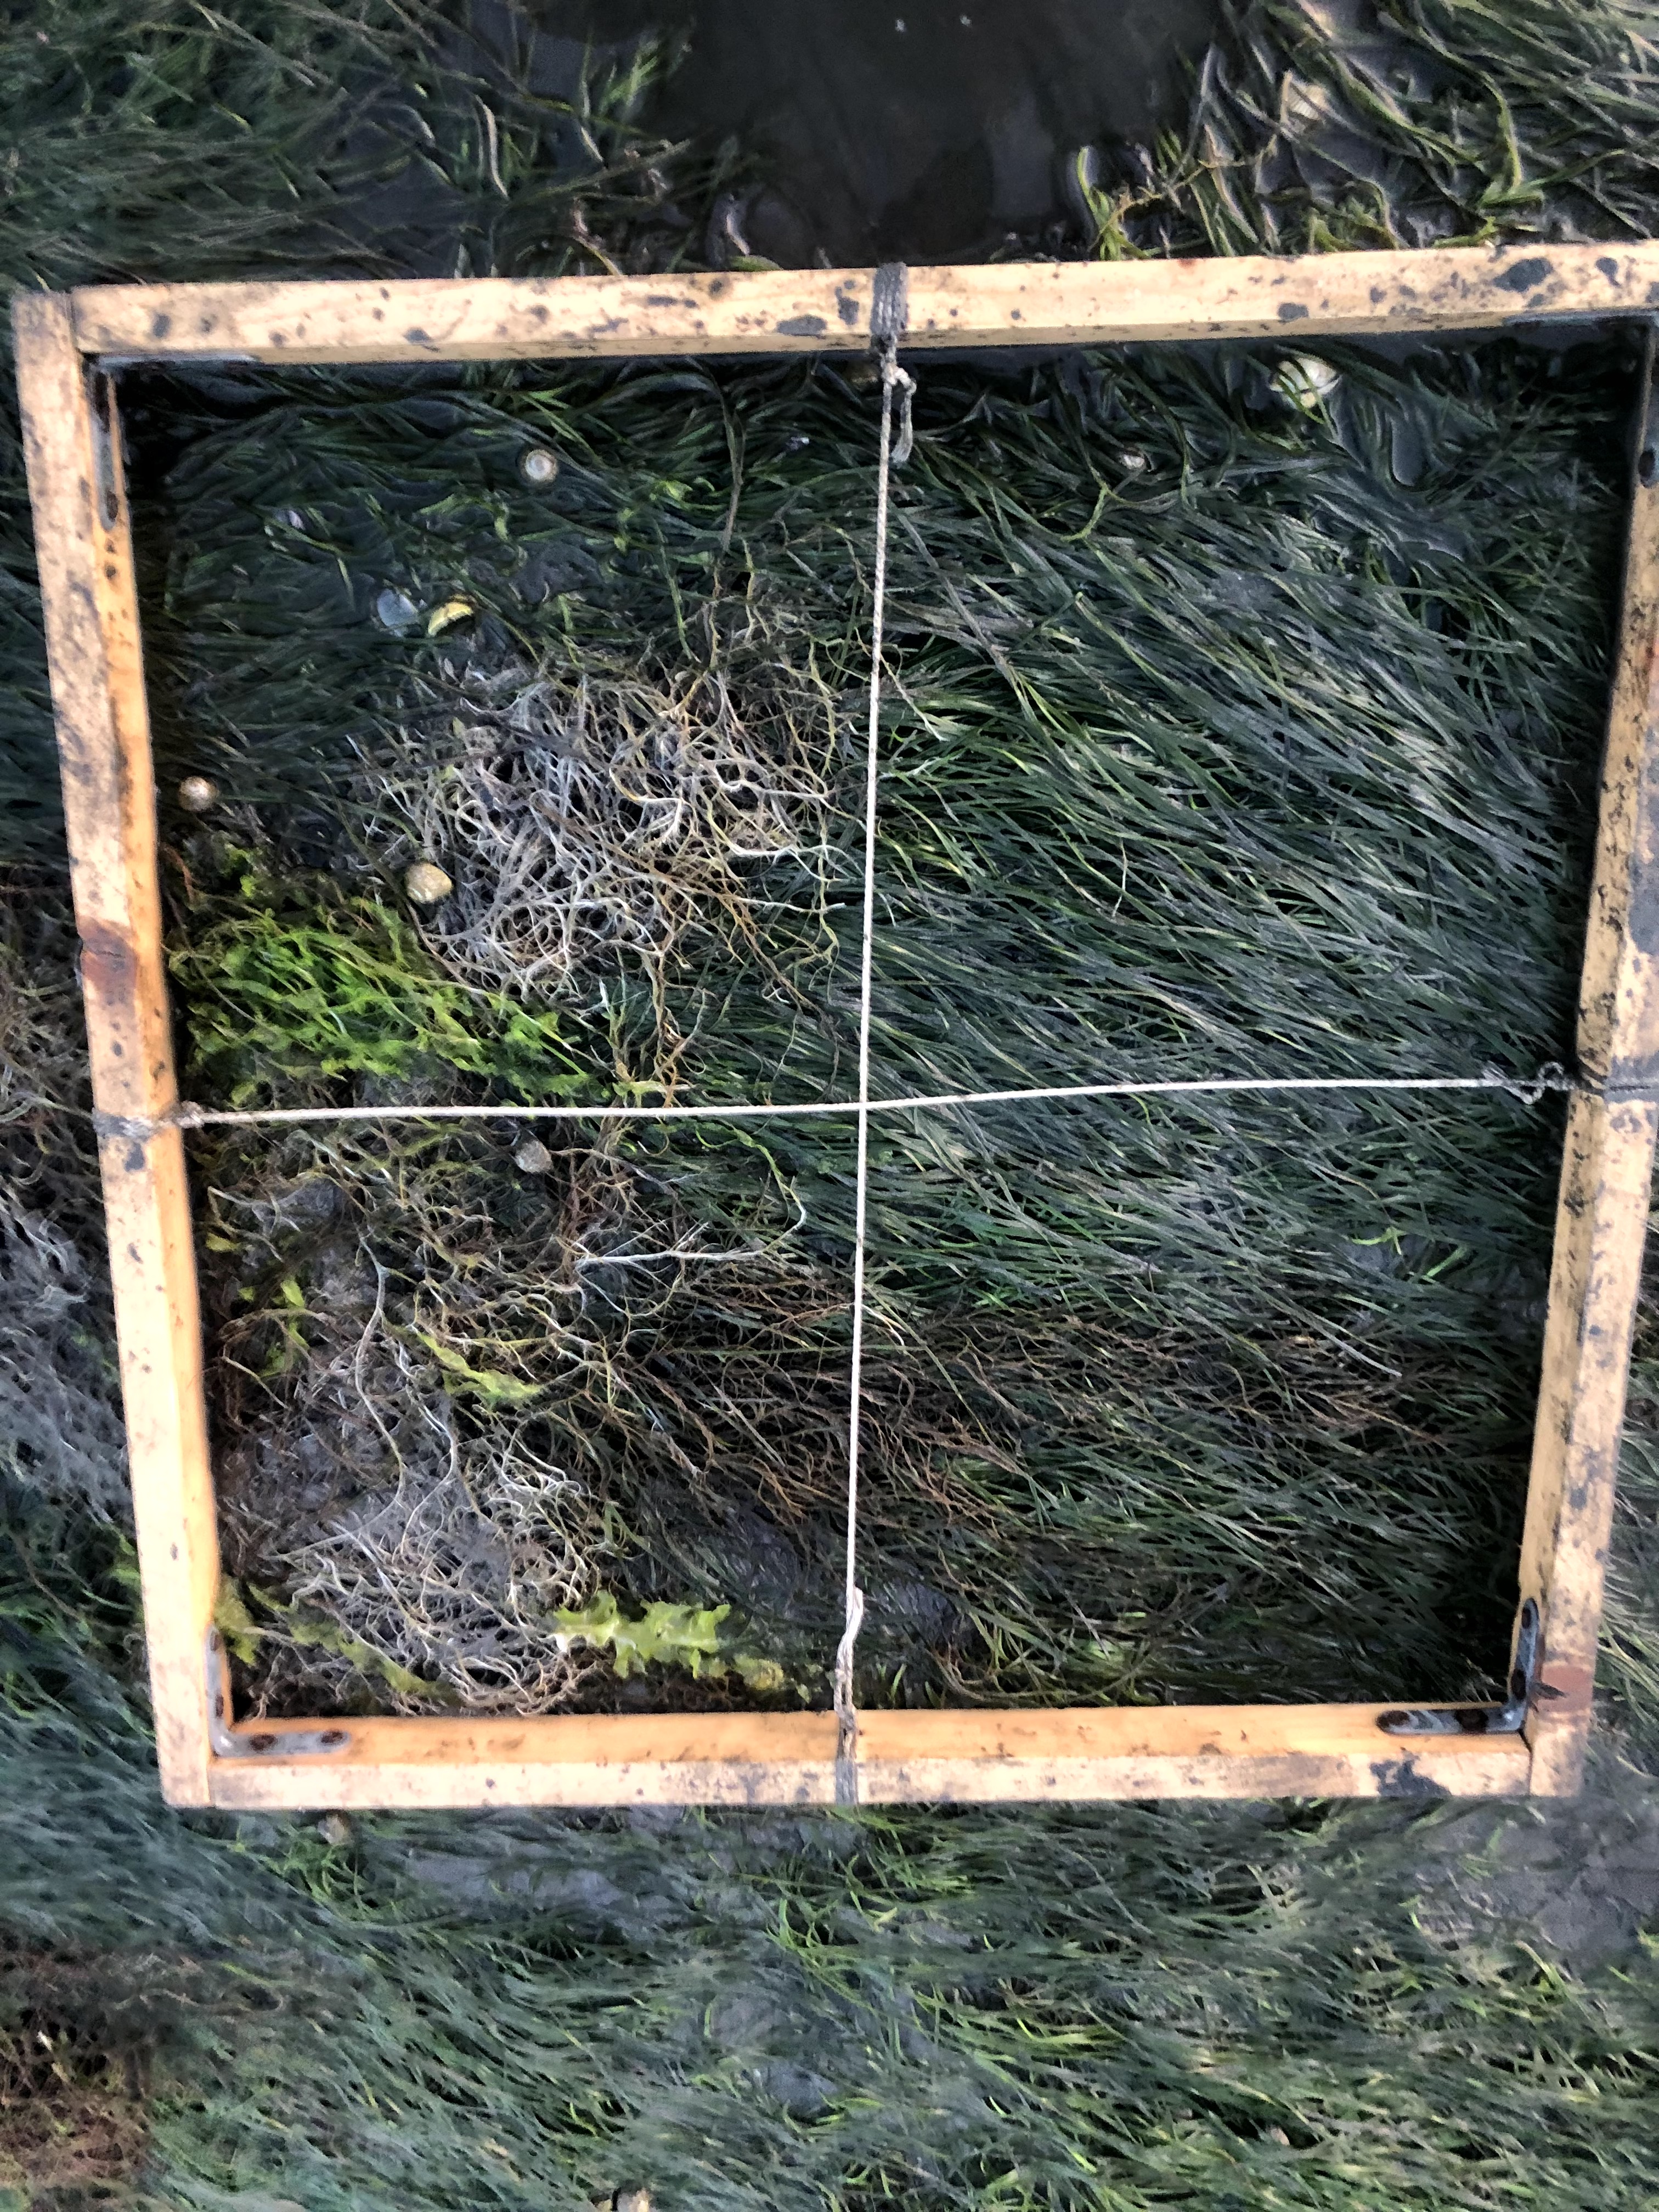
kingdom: Plantae
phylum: Chlorophyta
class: Ulvophyceae
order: Ulvales
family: Ulvaceae
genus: Ulva
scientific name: Ulva
